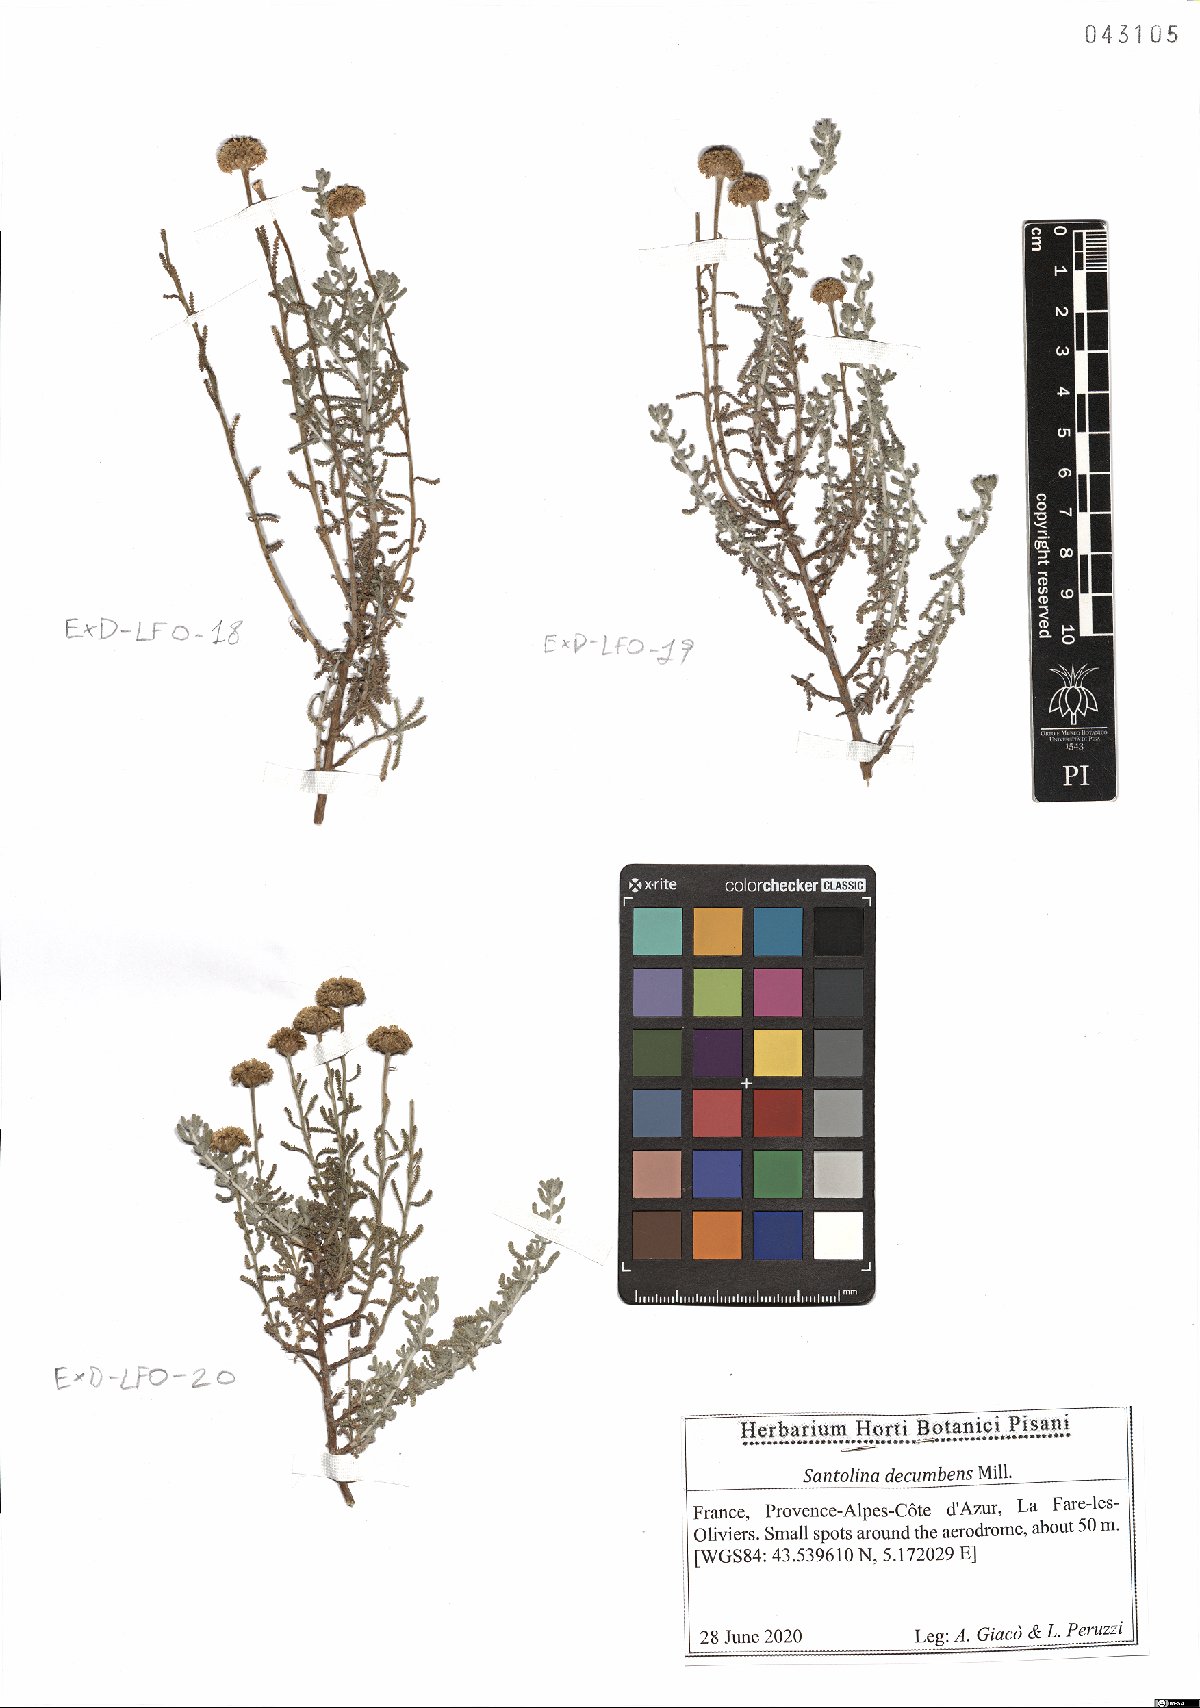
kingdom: Plantae
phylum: Tracheophyta
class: Magnoliopsida
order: Asterales
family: Asteraceae
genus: Santolina
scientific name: Santolina decumbens
